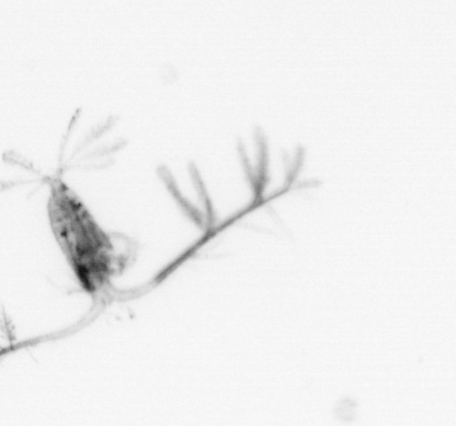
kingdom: Animalia
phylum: Arthropoda
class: Copepoda
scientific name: Copepoda
